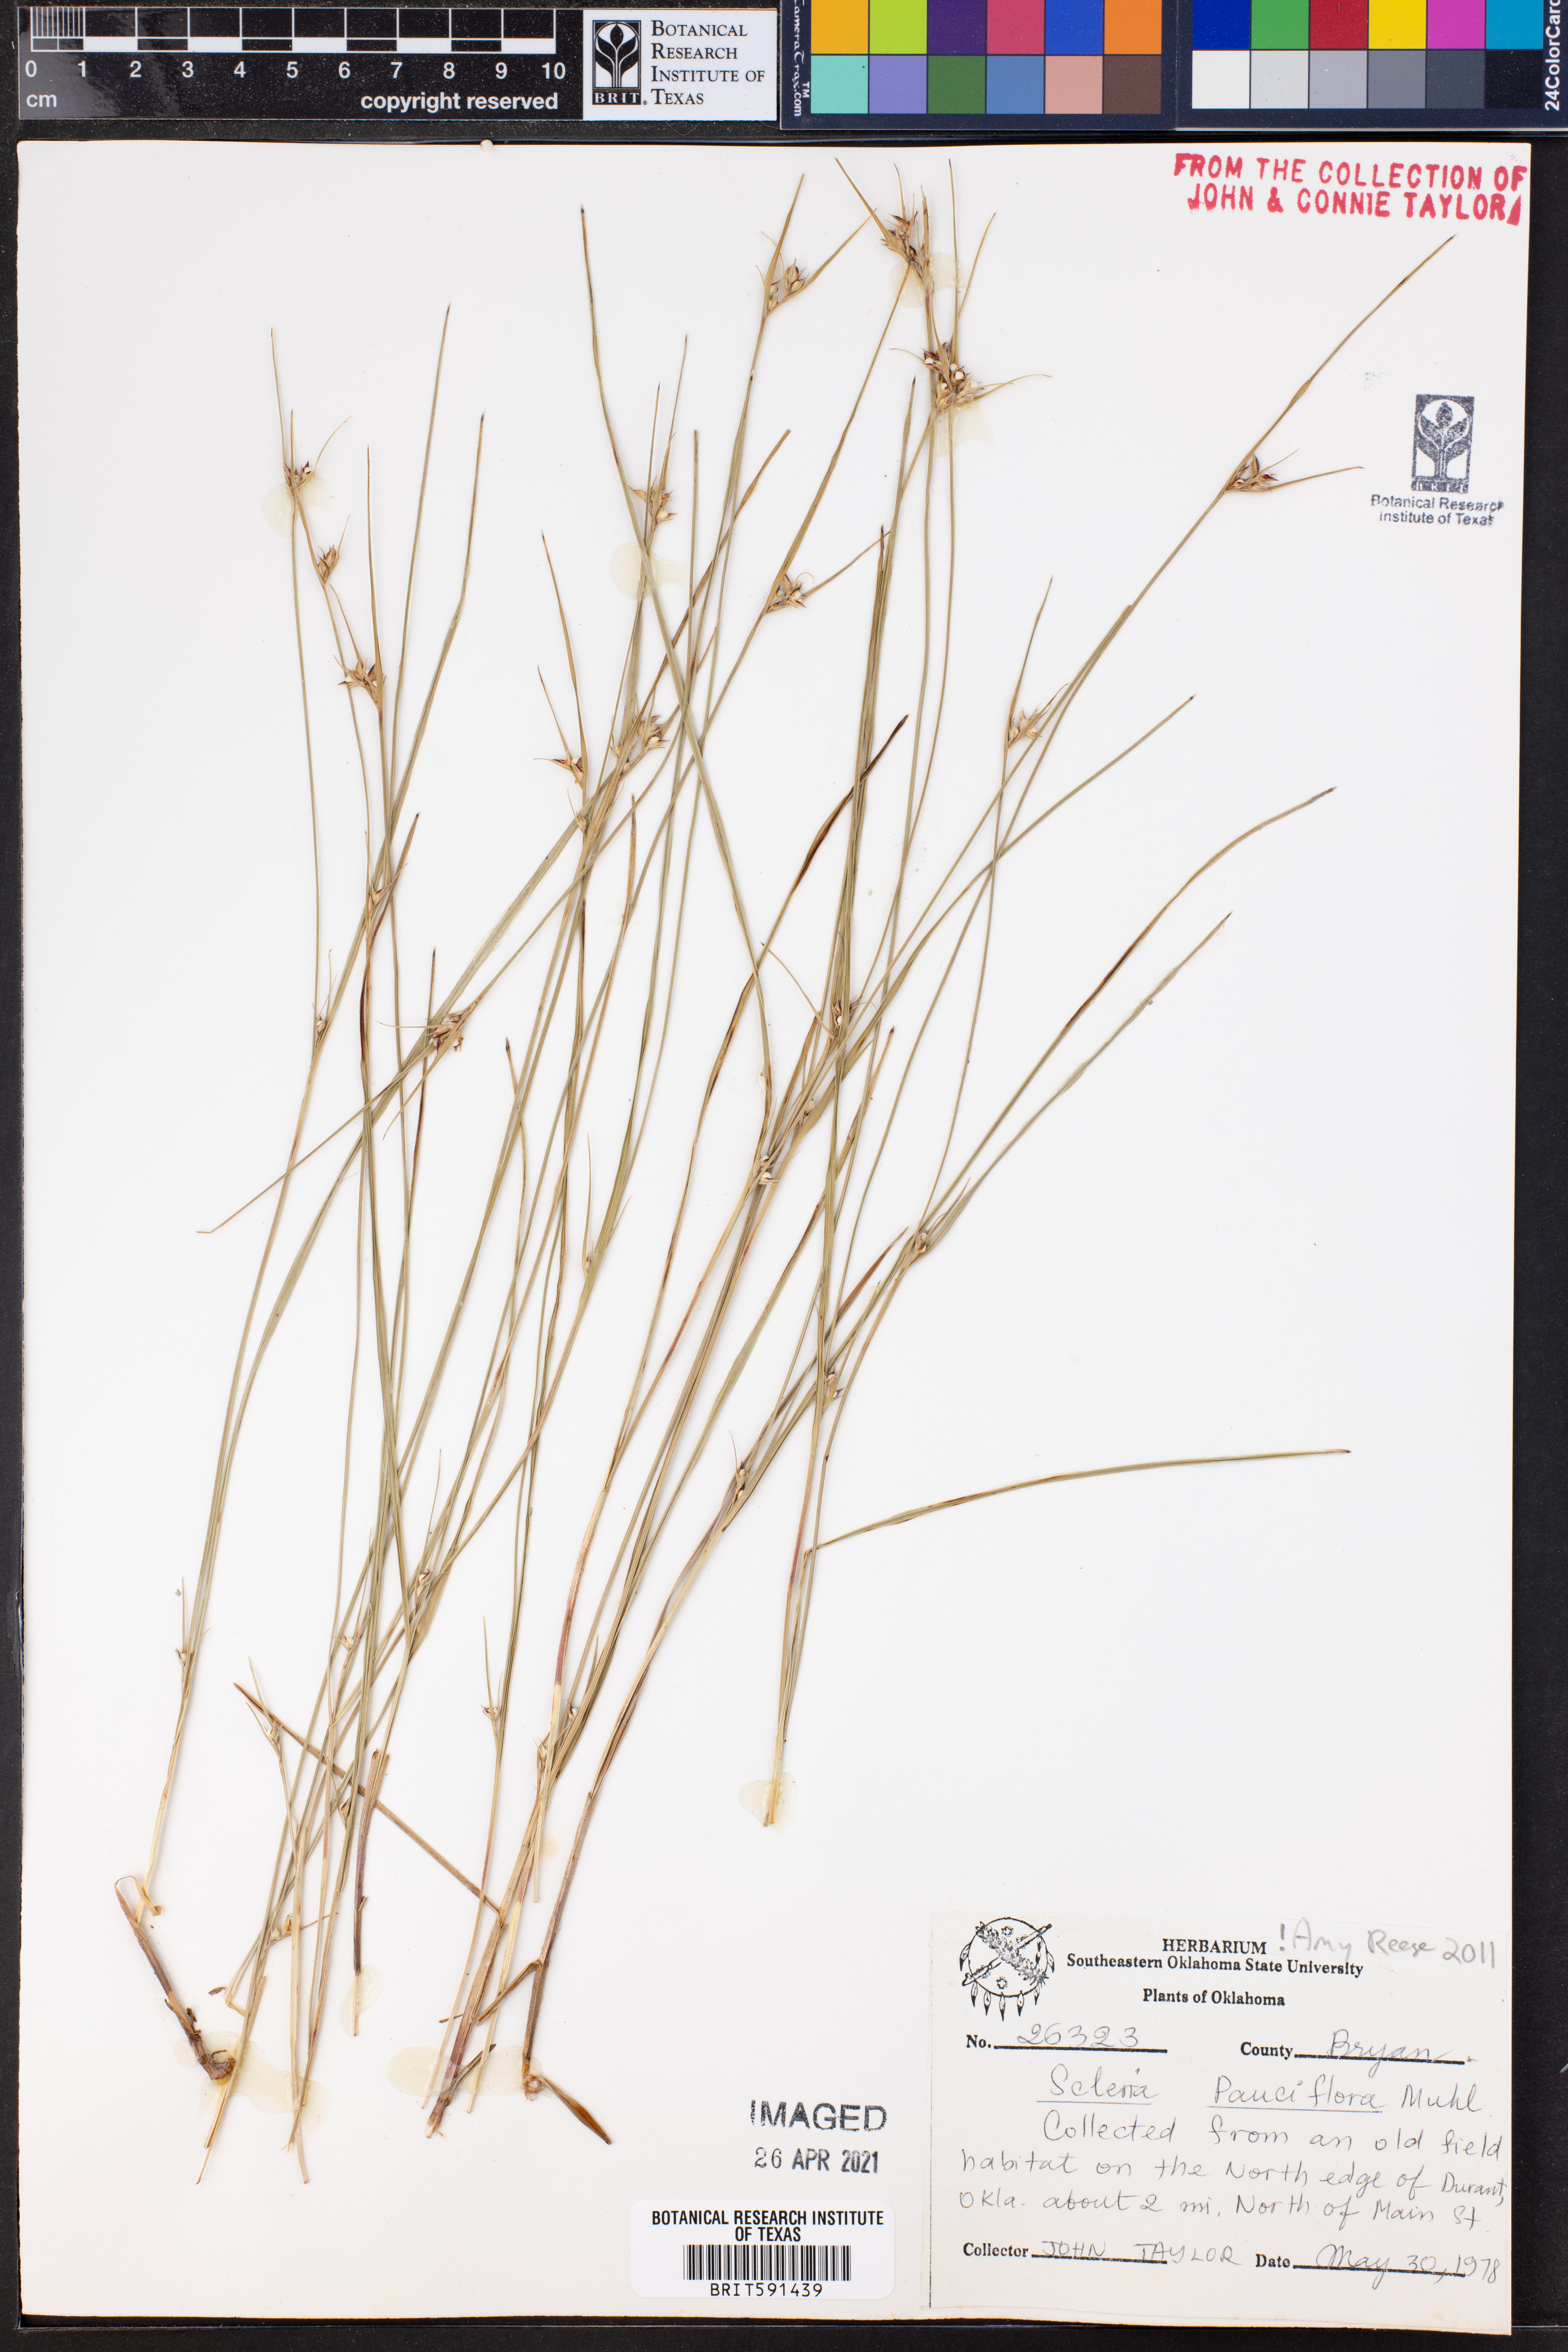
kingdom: Plantae
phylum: Tracheophyta
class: Liliopsida
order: Poales
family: Cyperaceae
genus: Scleria
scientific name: Scleria pauciflora
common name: Few-flowered nutrush
